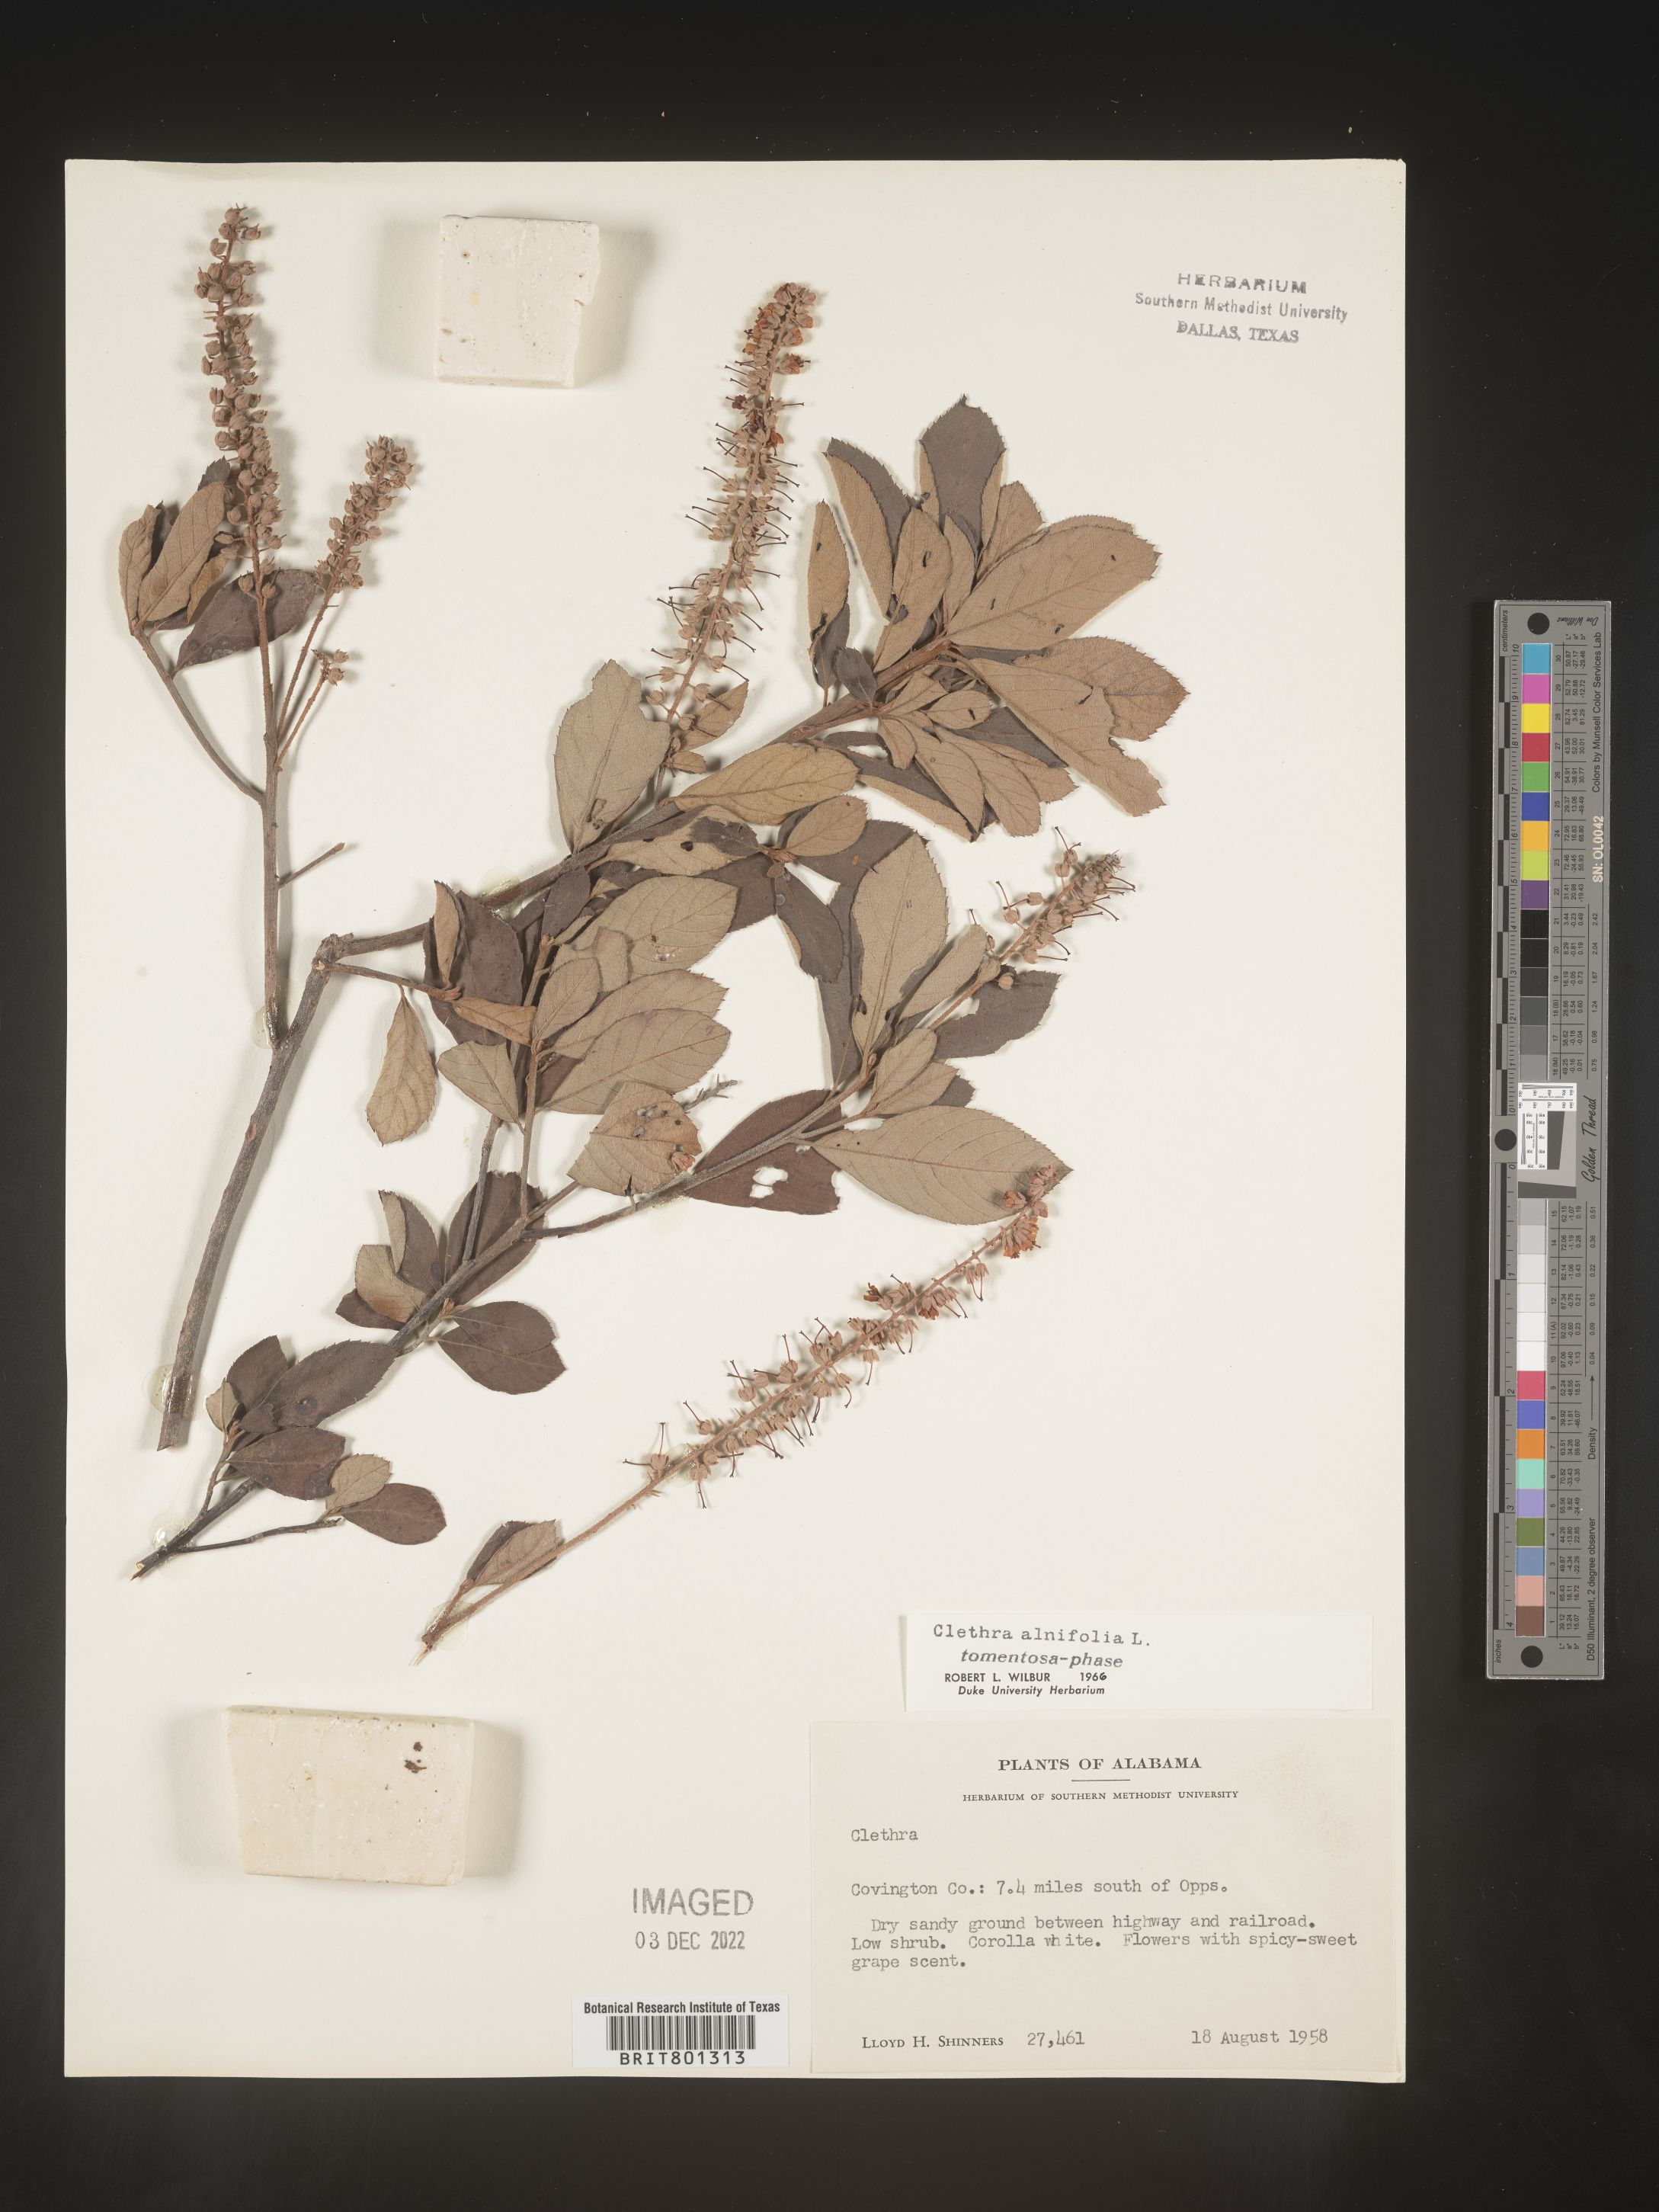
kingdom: Plantae
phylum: Tracheophyta
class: Magnoliopsida
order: Ericales
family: Clethraceae
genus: Clethra
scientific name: Clethra alnifolia
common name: Sweet pepperbush
